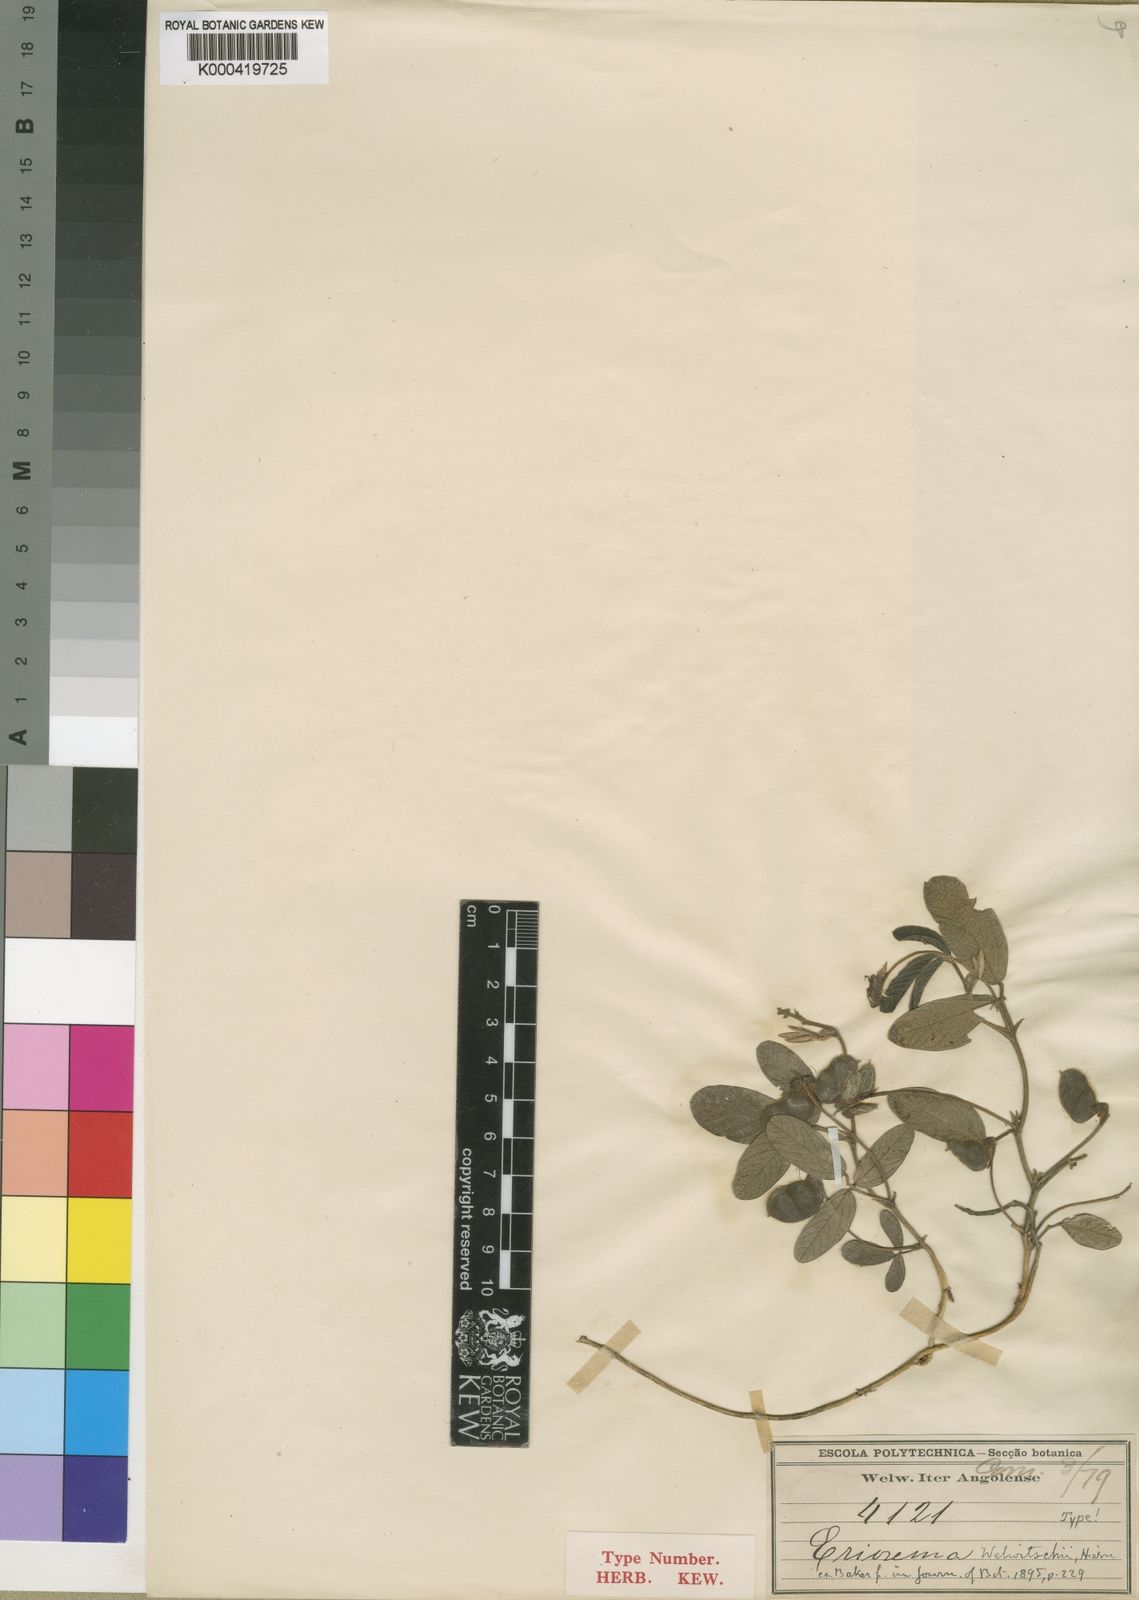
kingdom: Plantae
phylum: Tracheophyta
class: Magnoliopsida
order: Fabales
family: Fabaceae
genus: Eriosema
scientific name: Eriosema welwitschii
